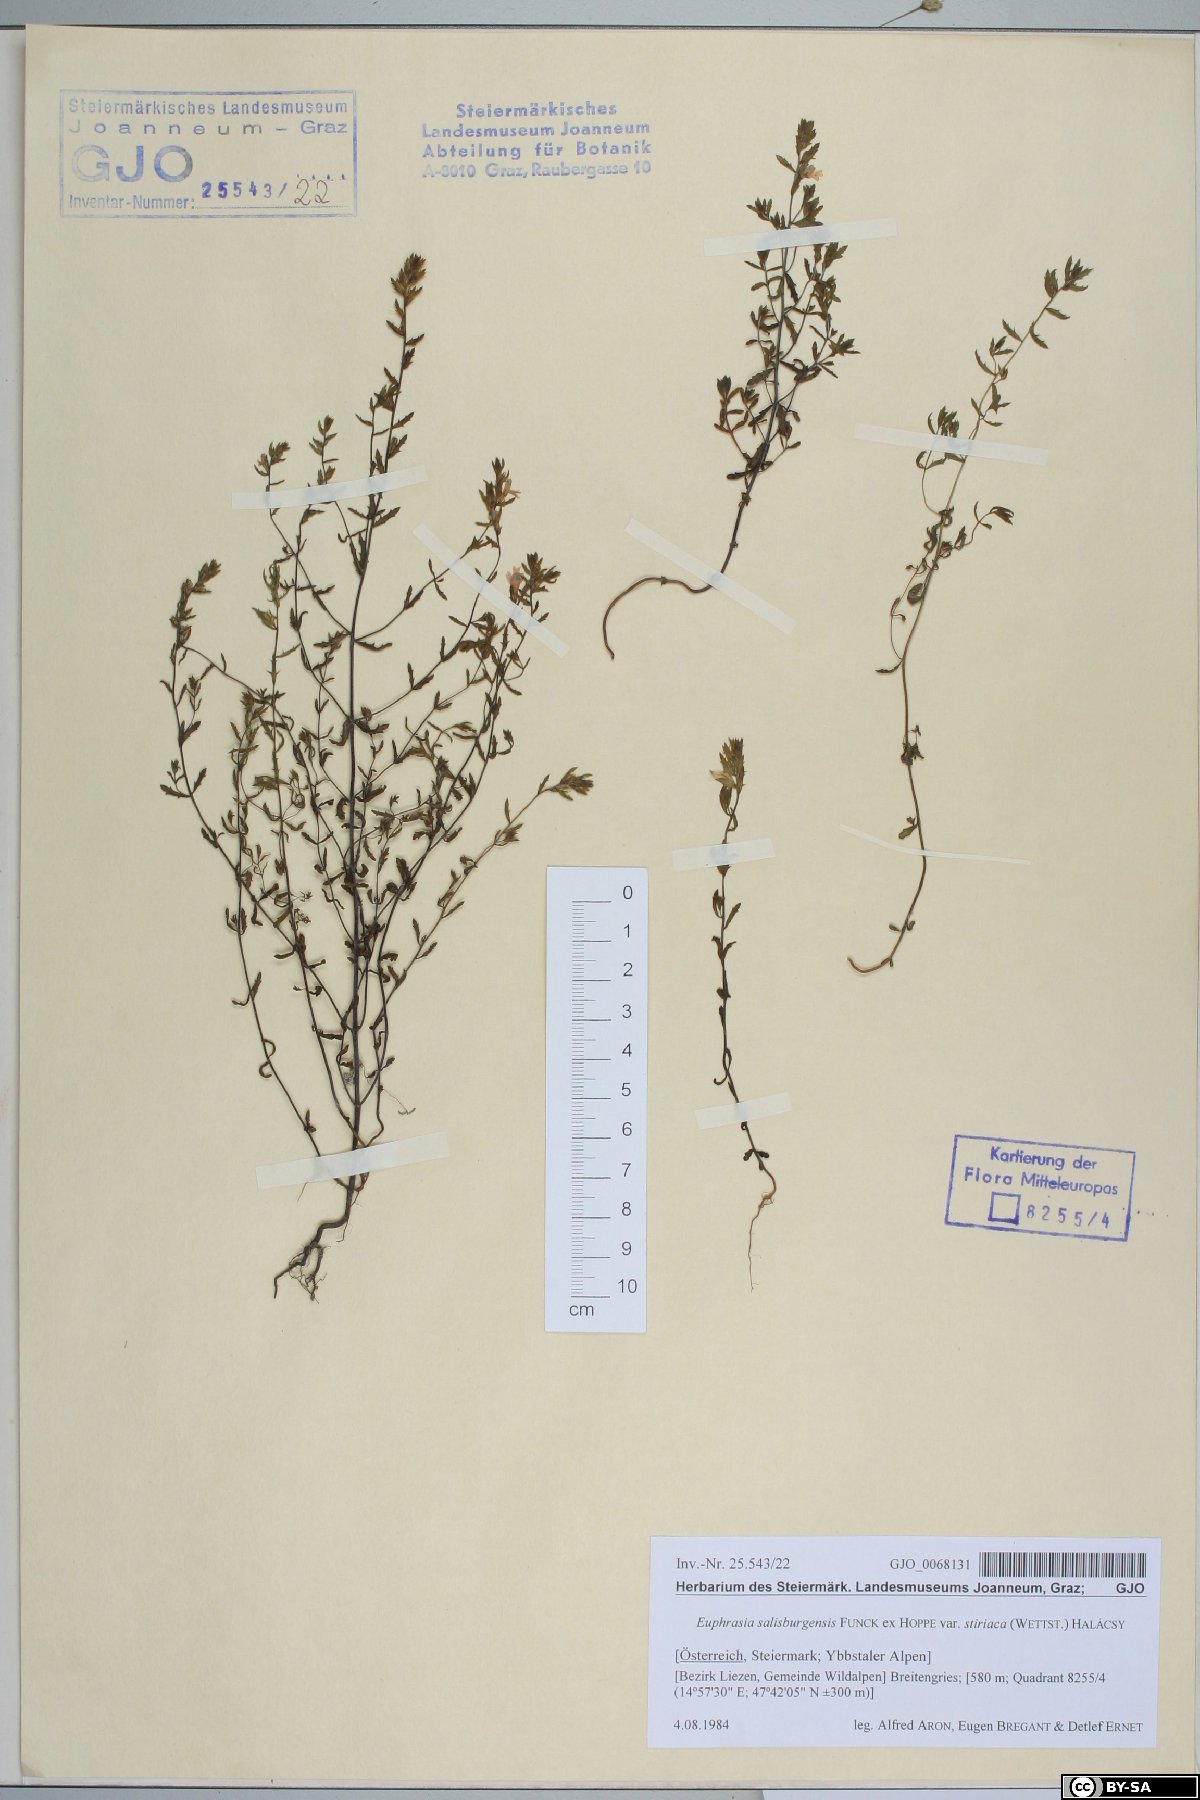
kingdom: Plantae
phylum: Tracheophyta
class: Magnoliopsida
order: Lamiales
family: Orobanchaceae
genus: Euphrasia
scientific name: Euphrasia salisburgensis
